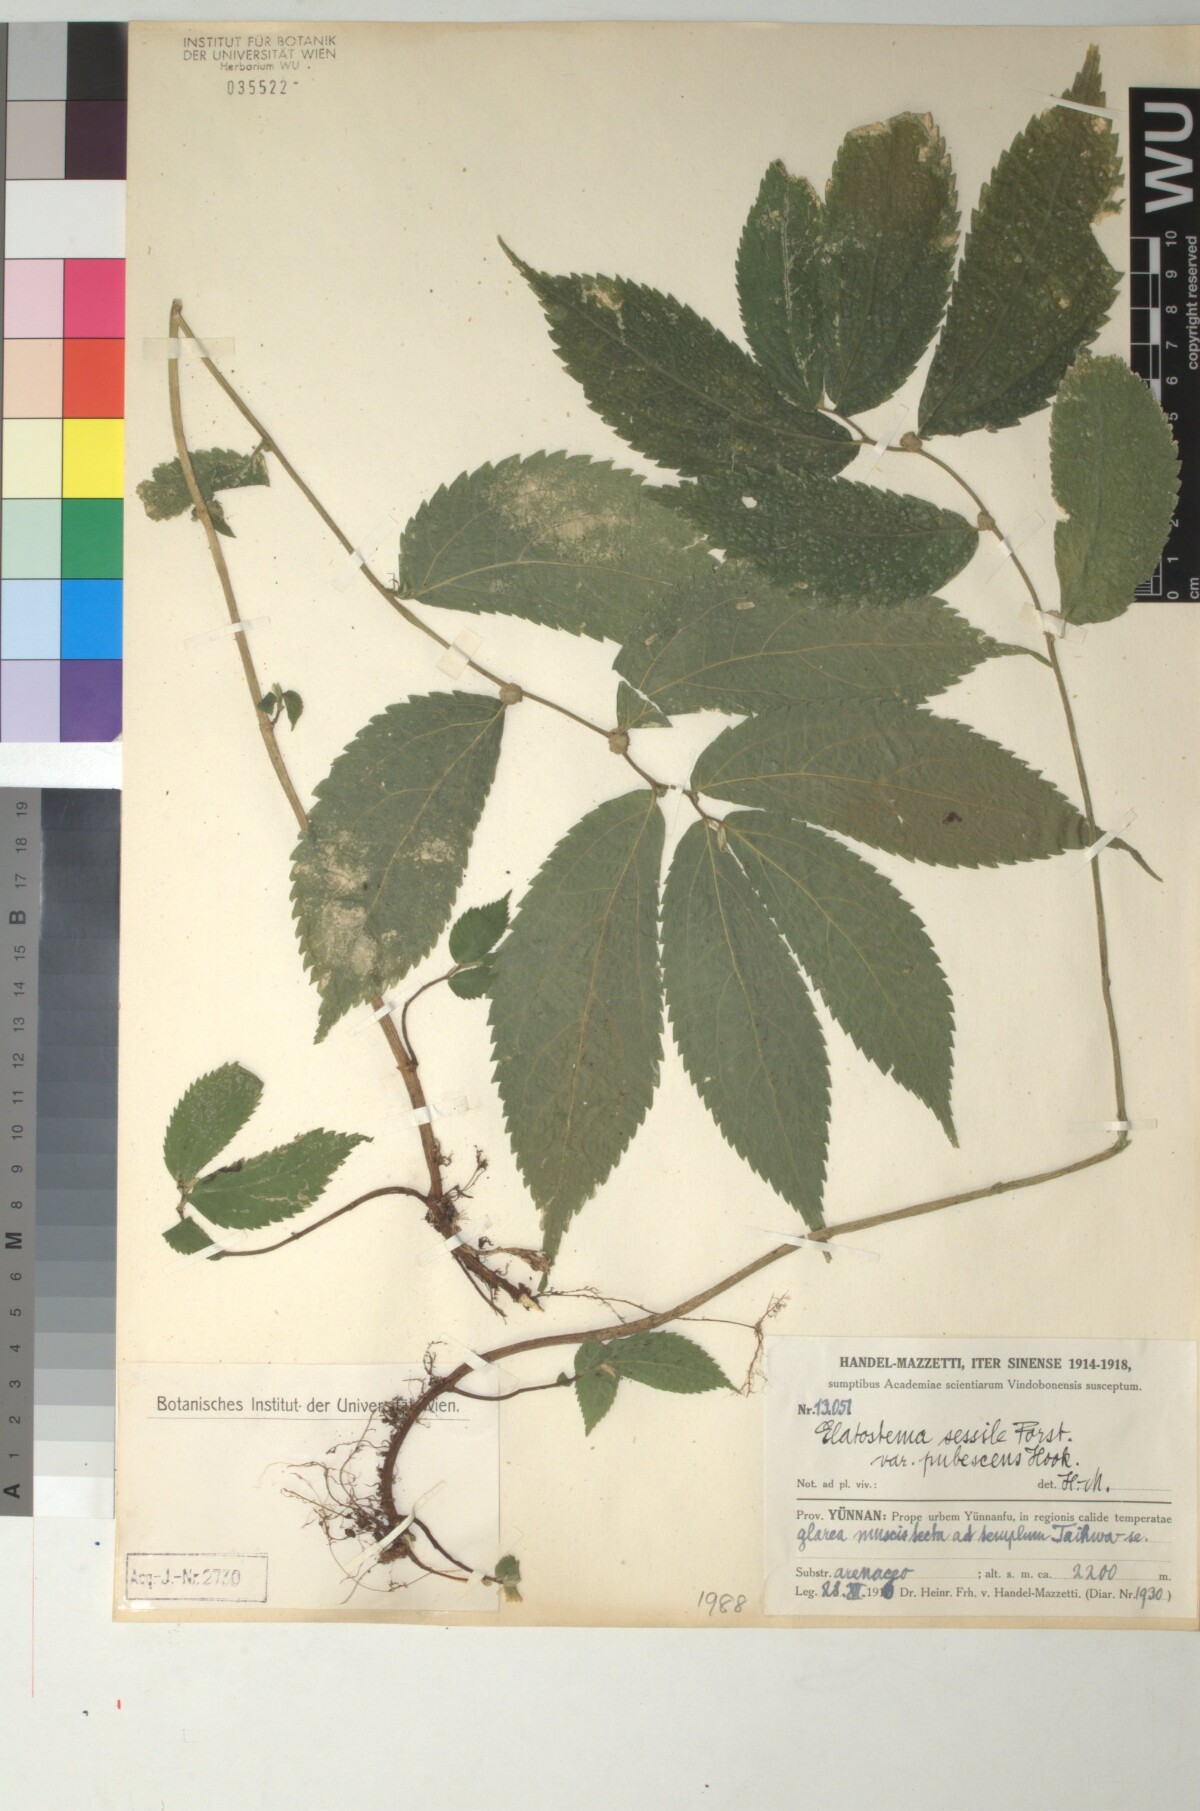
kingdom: Plantae
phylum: Tracheophyta
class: Magnoliopsida
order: Rosales
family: Urticaceae
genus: Elatostema
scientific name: Elatostema cyrtandrifolium
